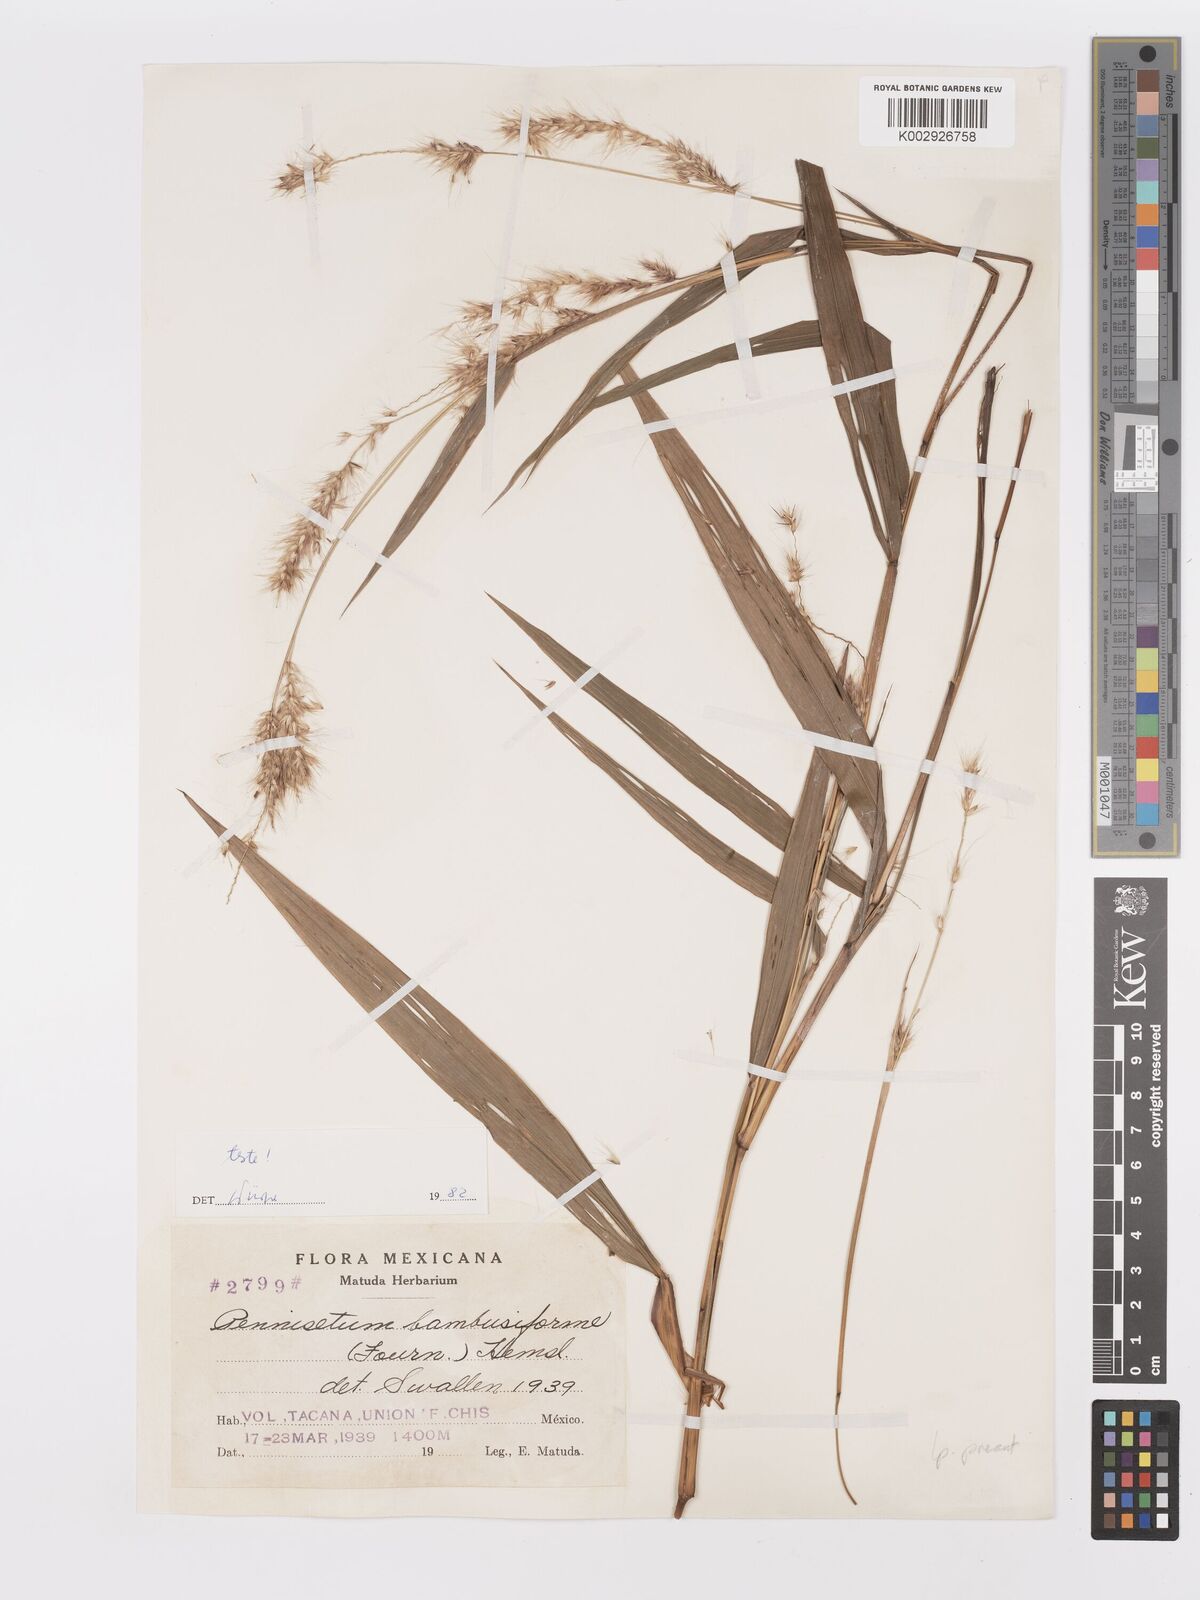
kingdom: Plantae
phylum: Tracheophyta
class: Liliopsida
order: Poales
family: Poaceae
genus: Cenchrus
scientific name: Cenchrus tristachyus
